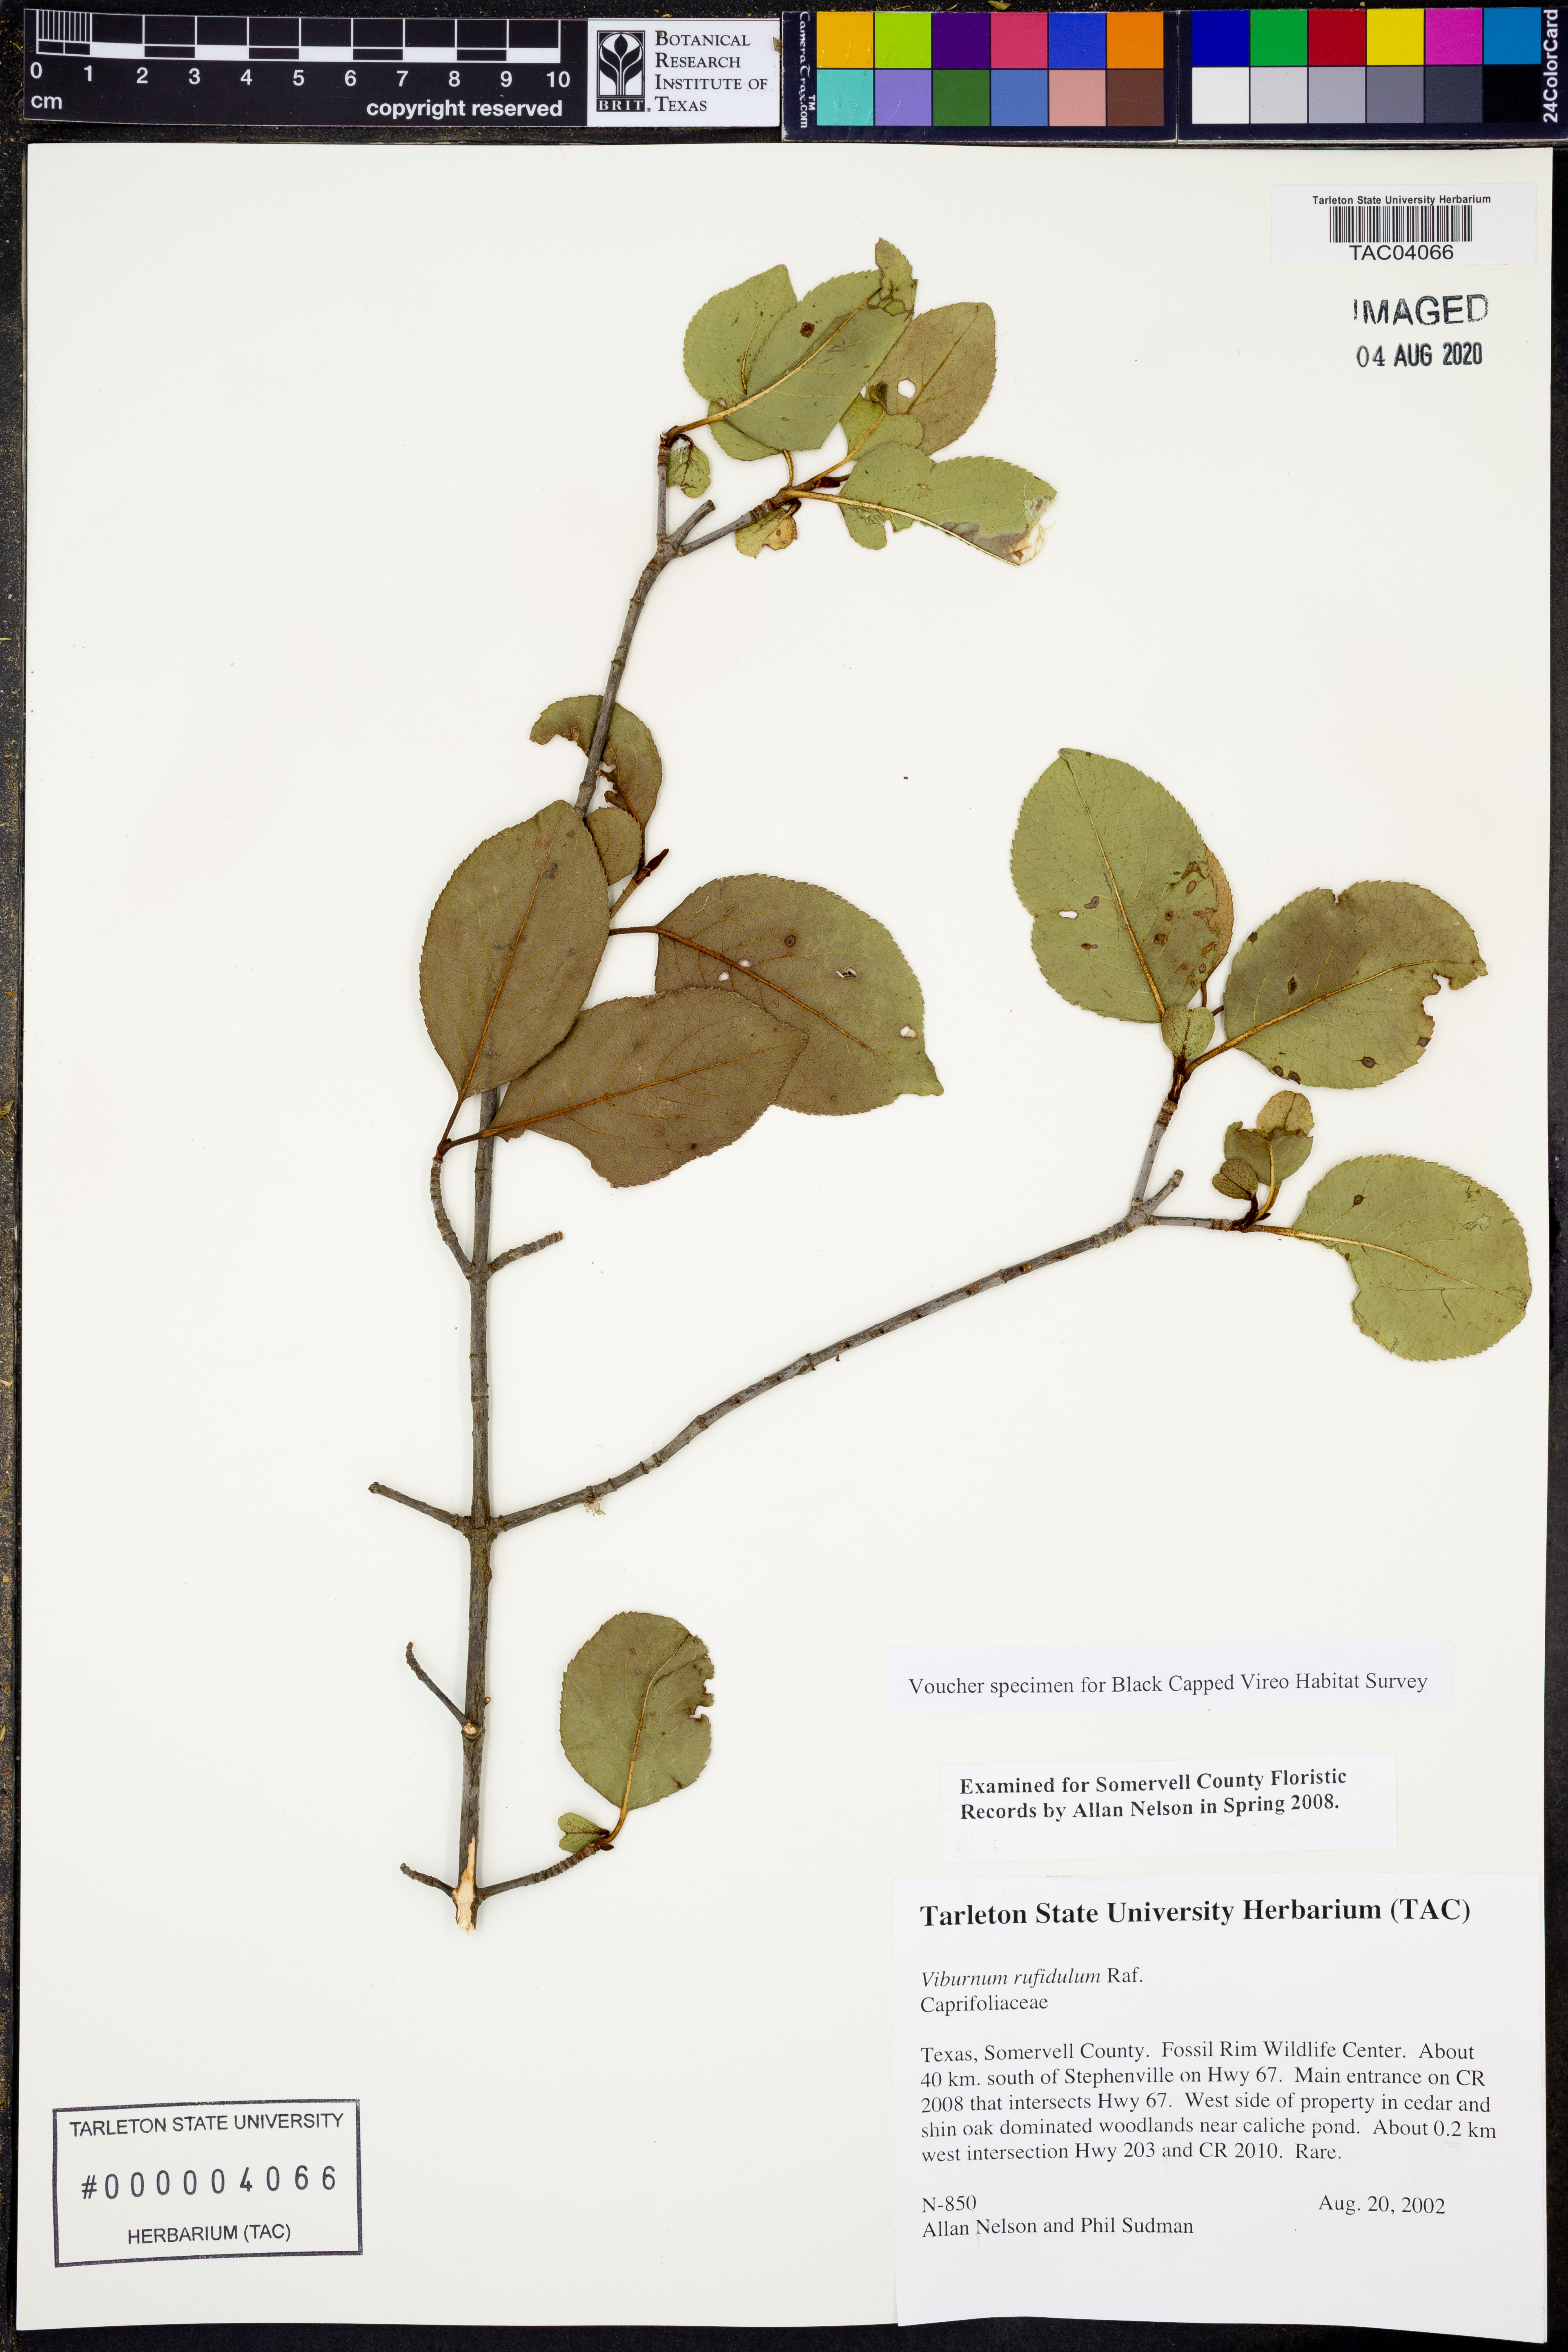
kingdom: Plantae
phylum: Tracheophyta
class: Magnoliopsida
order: Dipsacales
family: Viburnaceae
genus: Viburnum
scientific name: Viburnum rufidulum
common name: Blue haw
